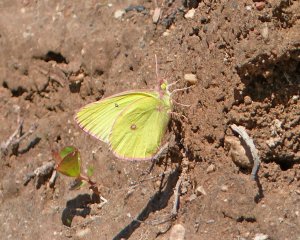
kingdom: Animalia
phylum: Arthropoda
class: Insecta
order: Lepidoptera
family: Pieridae
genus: Colias
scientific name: Colias interior
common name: Pink-edged Sulphur
